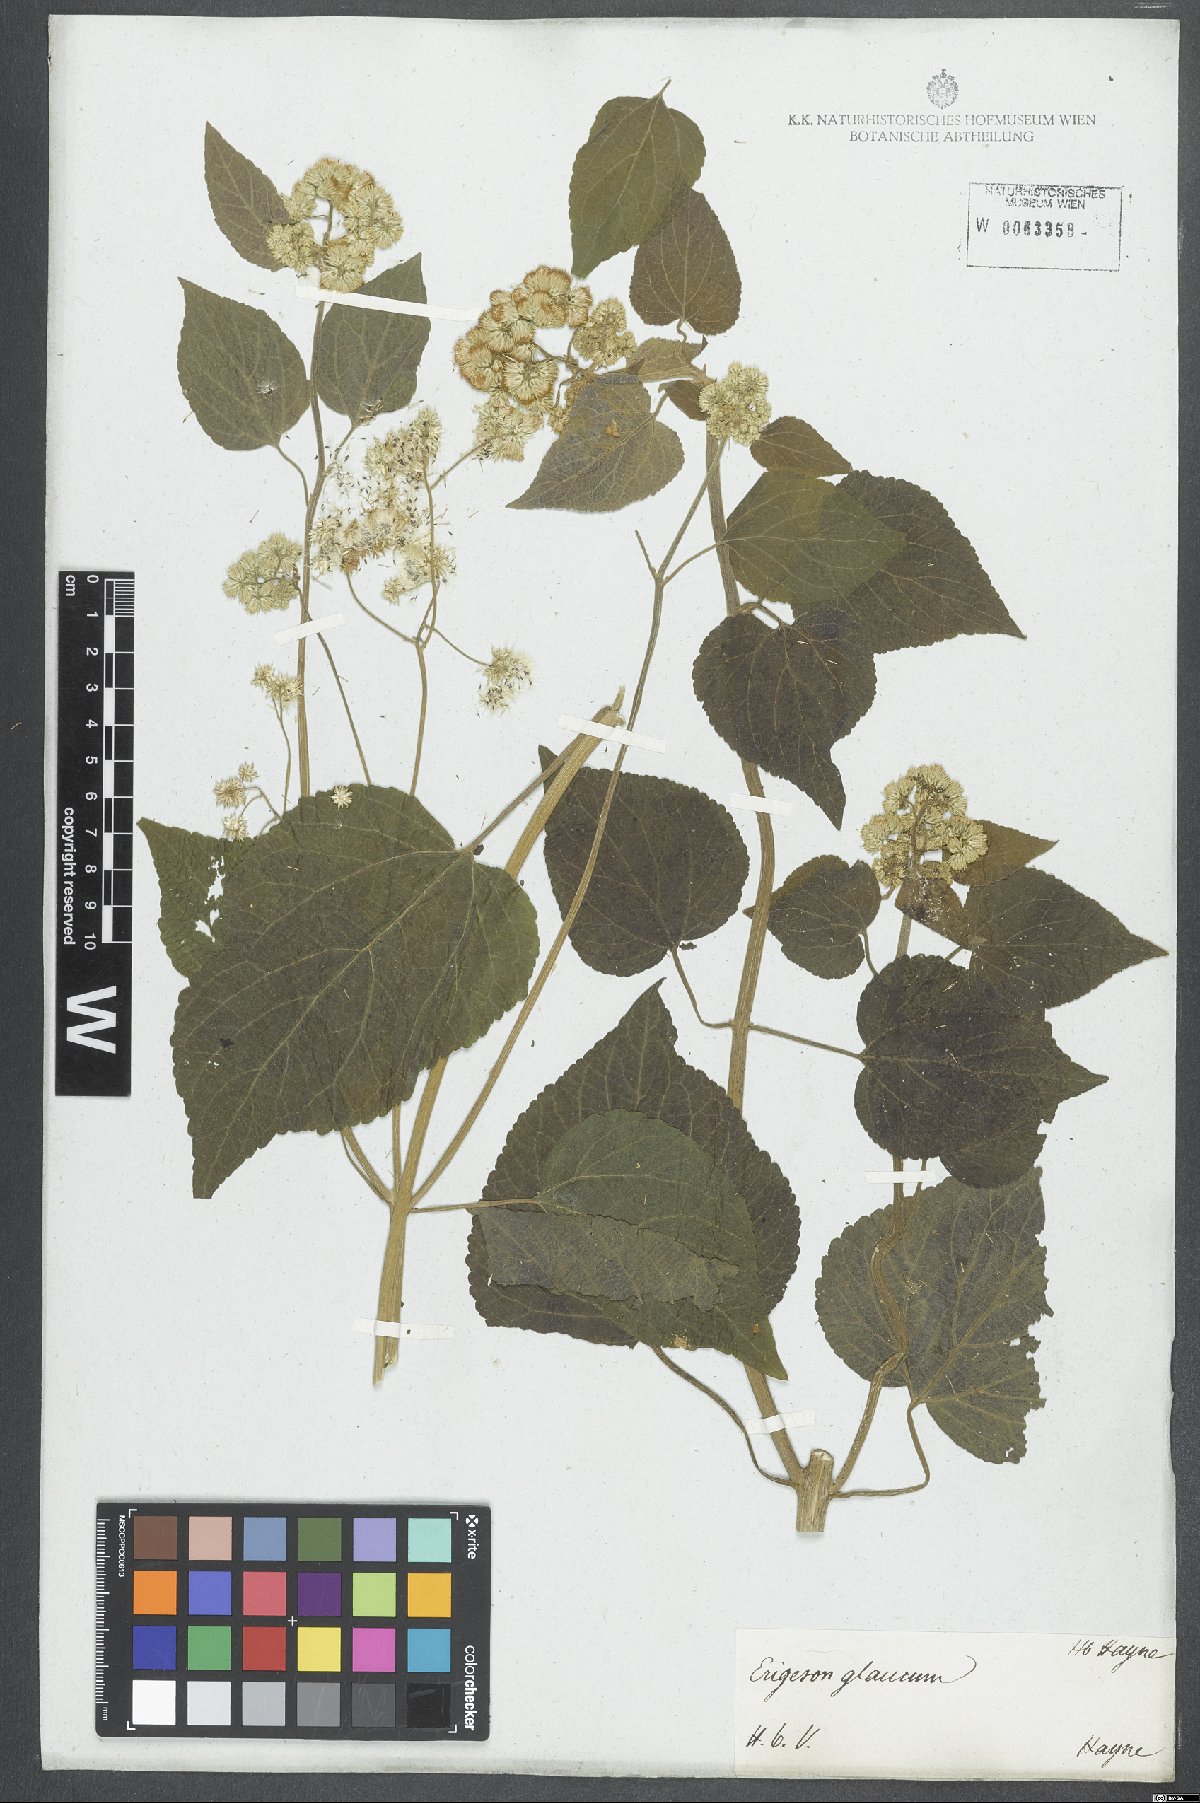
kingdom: Plantae
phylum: Tracheophyta
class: Magnoliopsida
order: Asterales
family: Asteraceae
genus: Hebeclinium
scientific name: Hebeclinium macrophyllum
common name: Largeleaf thoroughwort
